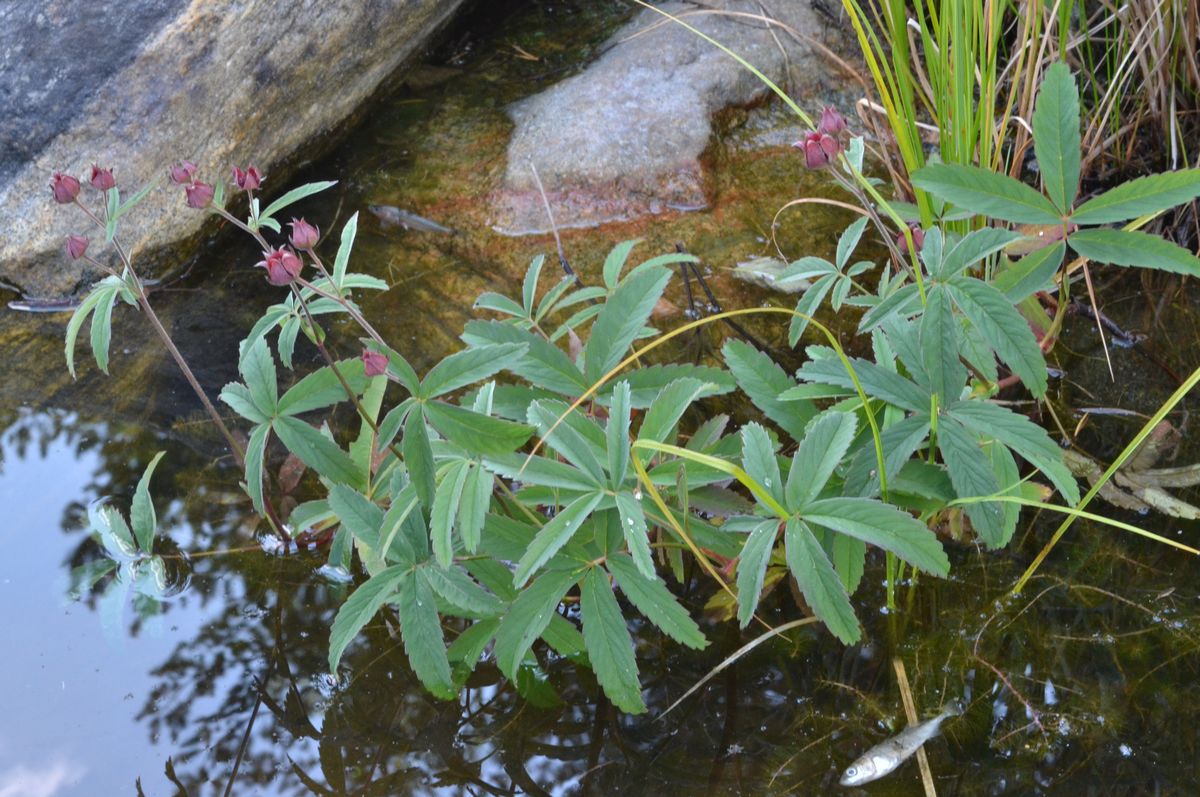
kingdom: Plantae
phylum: Tracheophyta
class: Magnoliopsida
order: Rosales
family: Rosaceae
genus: Comarum
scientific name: Comarum palustre
